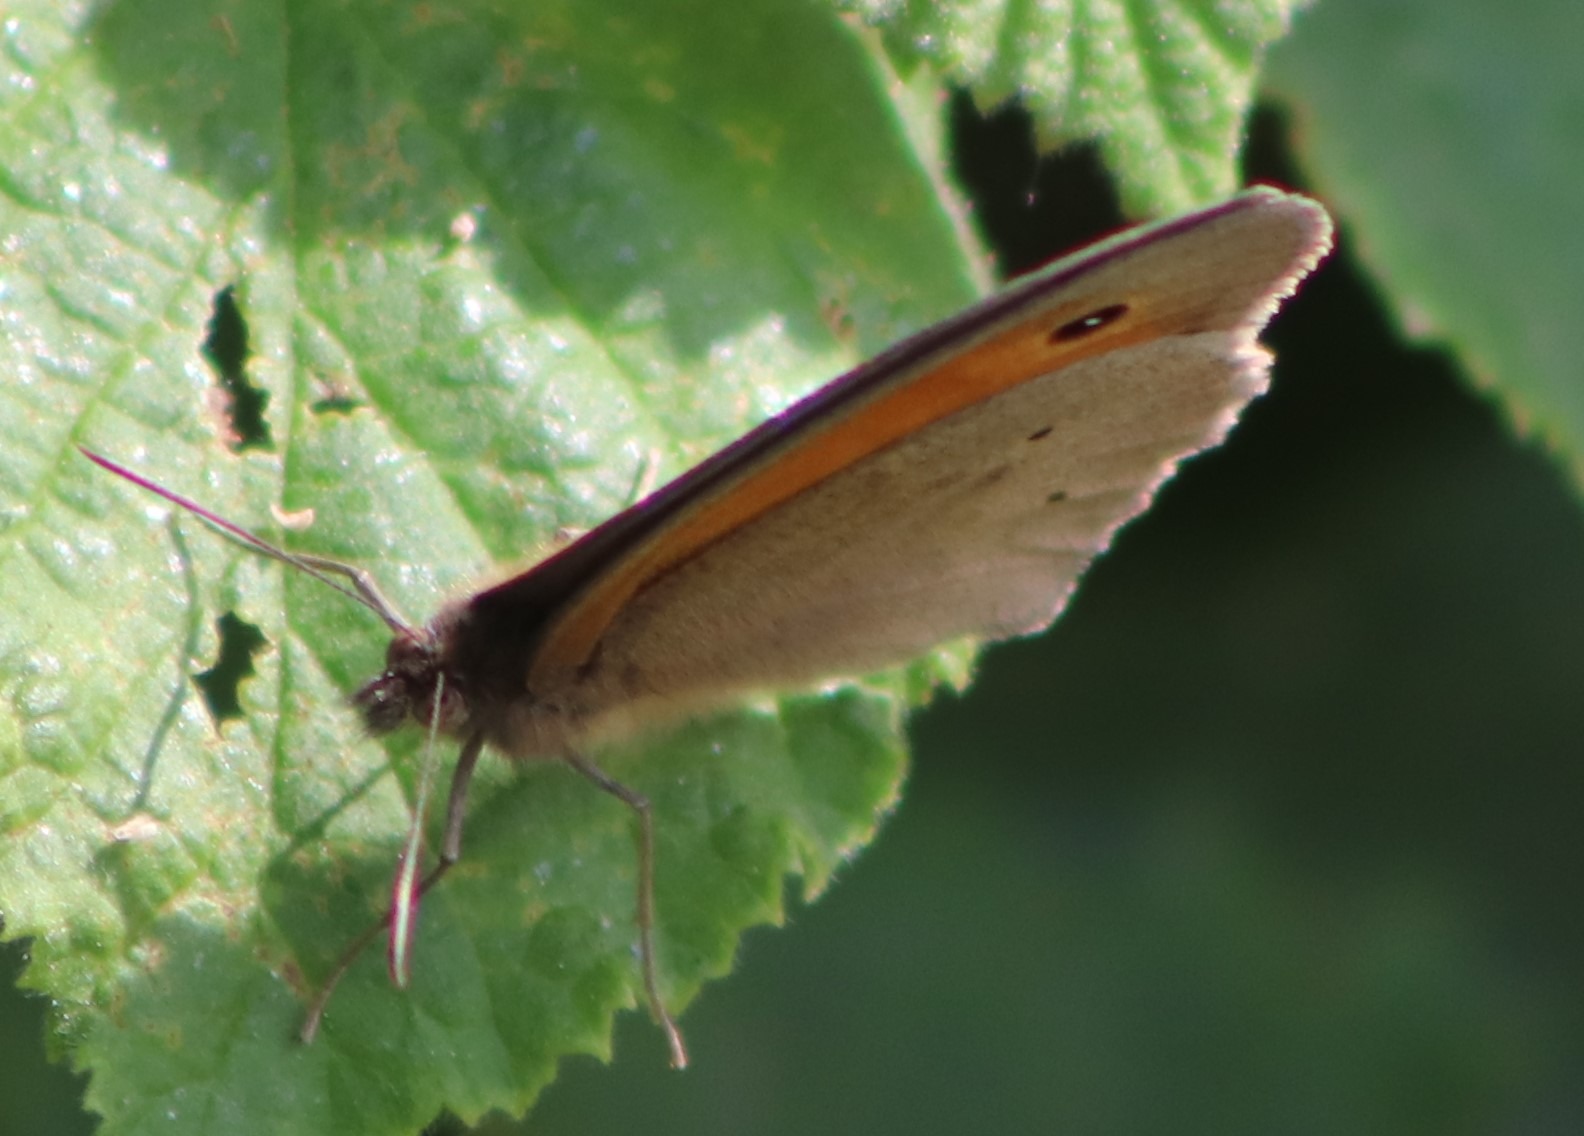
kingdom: Animalia
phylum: Arthropoda
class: Insecta
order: Lepidoptera
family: Nymphalidae
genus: Maniola
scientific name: Maniola jurtina
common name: Græsrandøje
